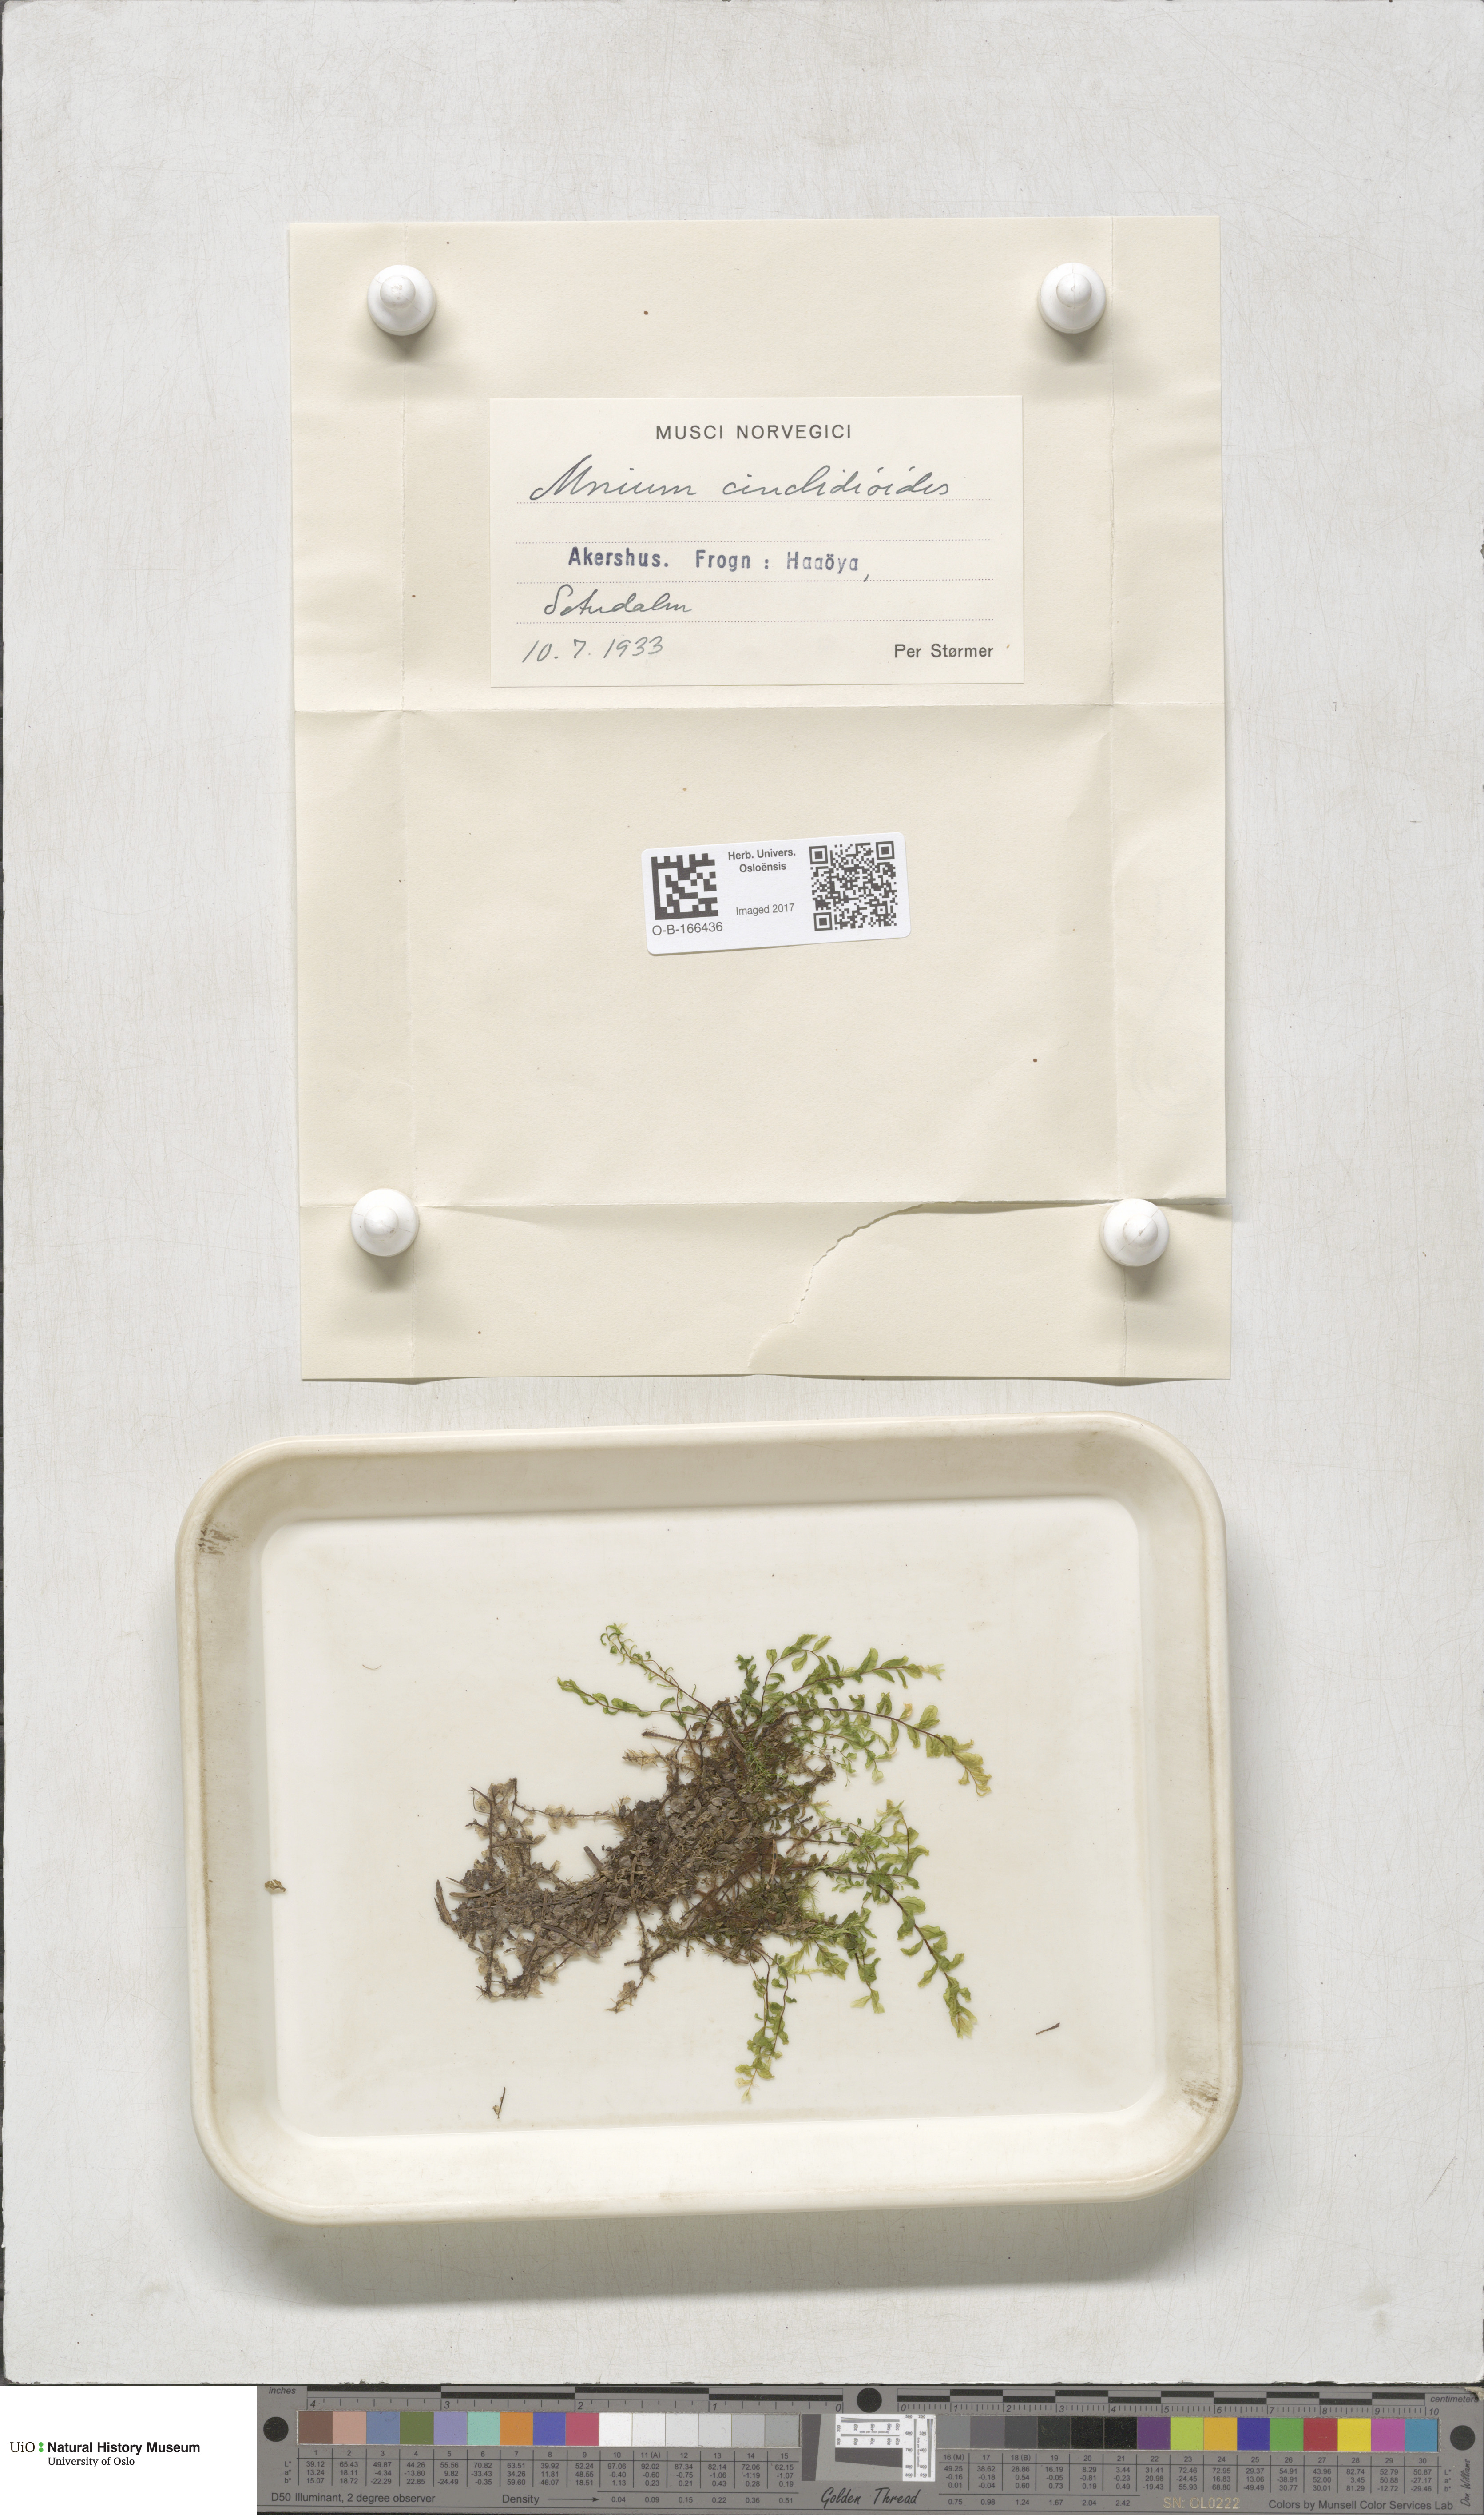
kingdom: Plantae
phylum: Bryophyta
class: Bryopsida
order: Bryales
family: Mniaceae
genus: Pseudobryum
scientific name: Pseudobryum cinclidioides
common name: River thyme moss
